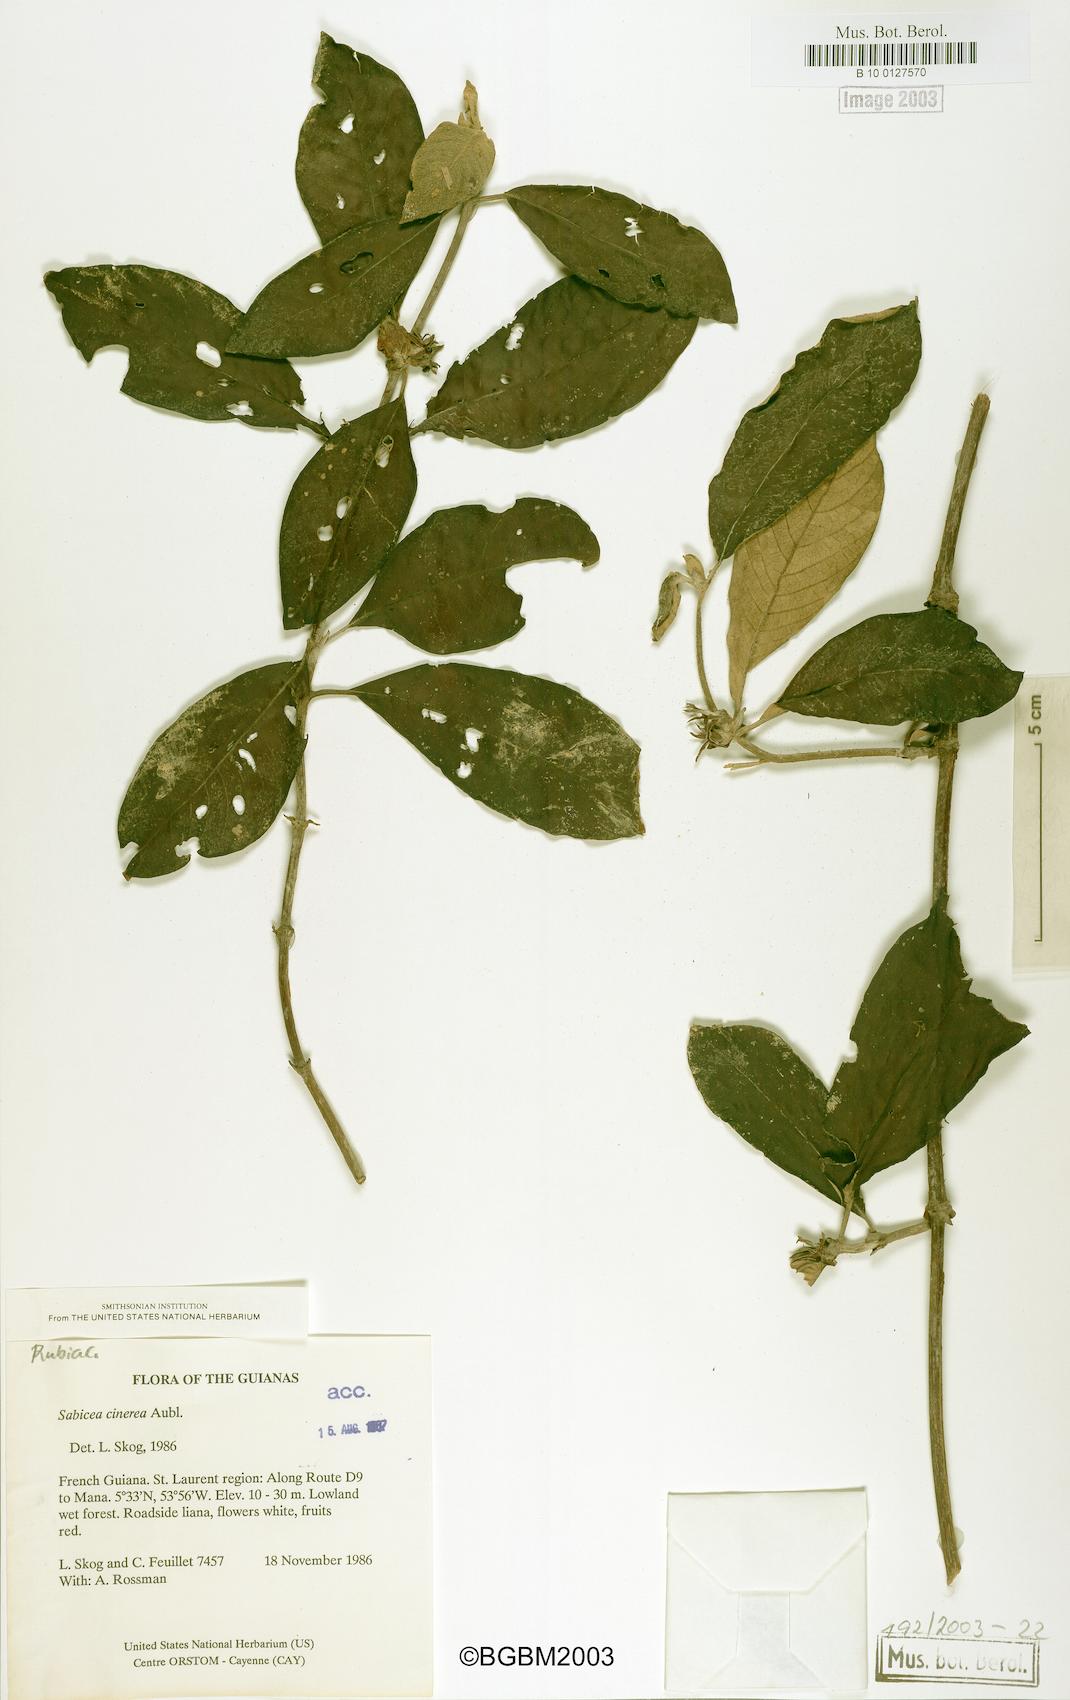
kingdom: Plantae
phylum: Tracheophyta
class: Magnoliopsida
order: Gentianales
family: Rubiaceae
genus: Sabicea
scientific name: Sabicea cinerea
